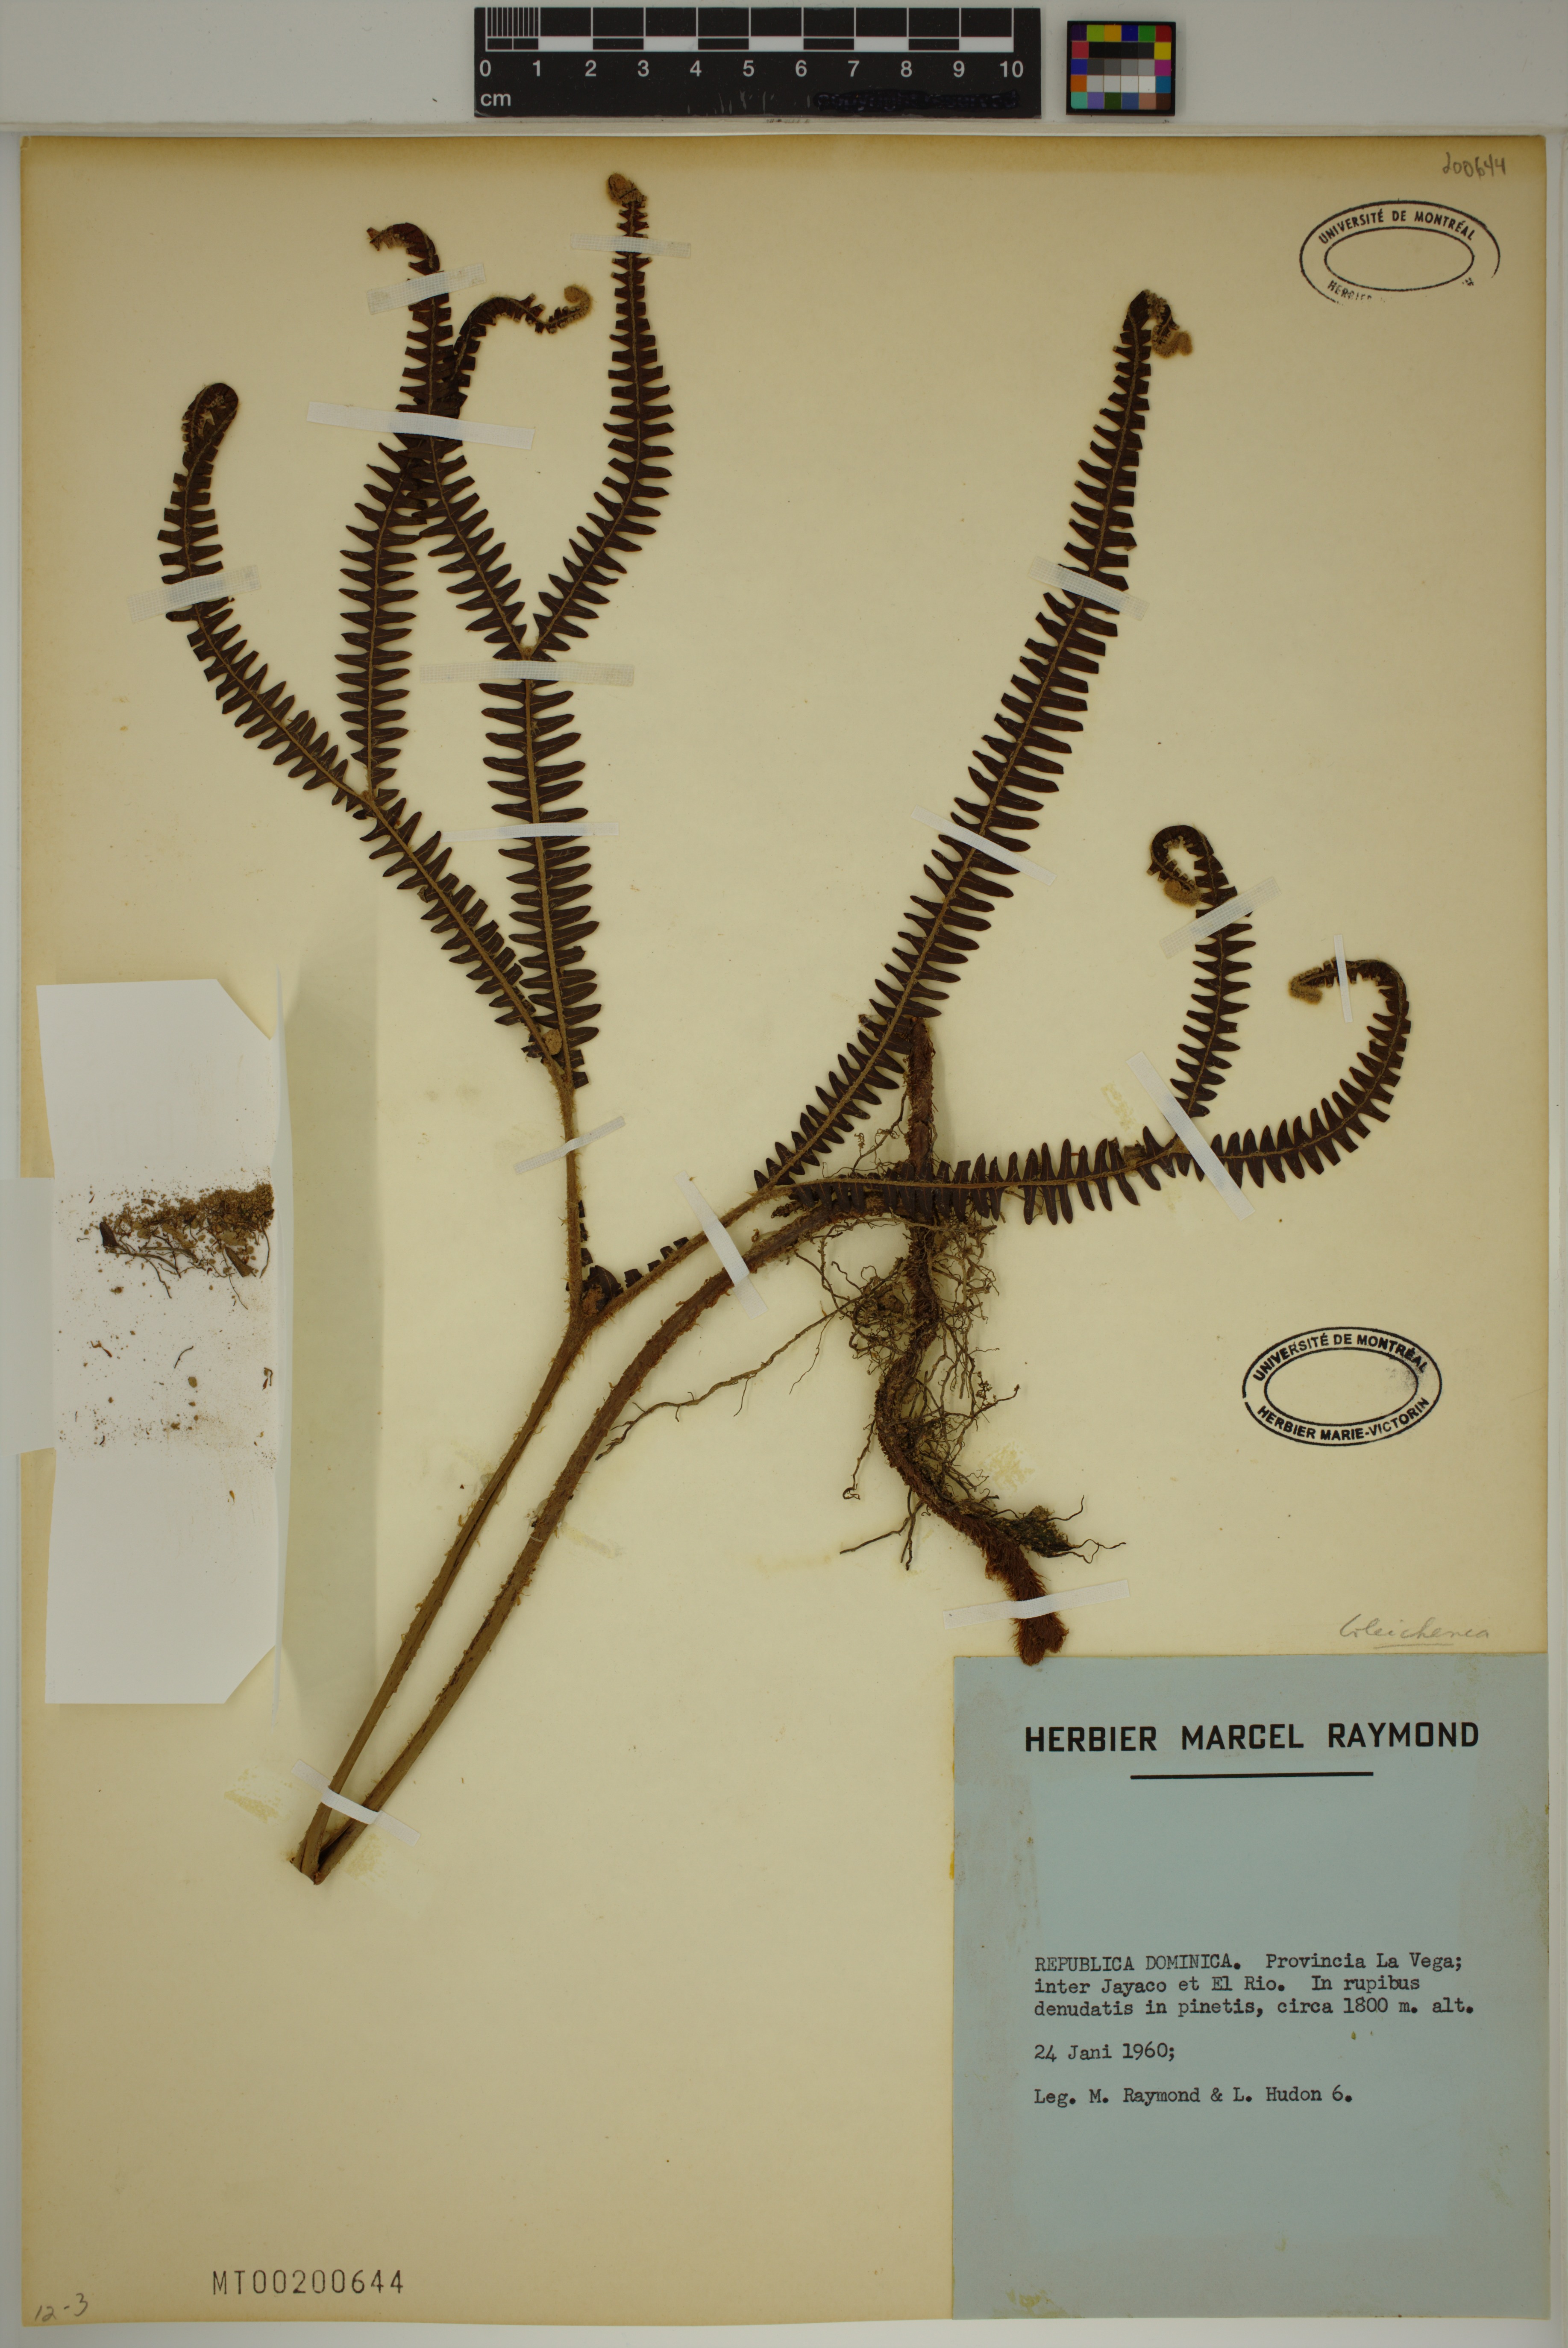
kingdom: Plantae
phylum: Tracheophyta
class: Polypodiopsida
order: Gleicheniales
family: Gleicheniaceae
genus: Gleichenia
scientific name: Gleichenia
